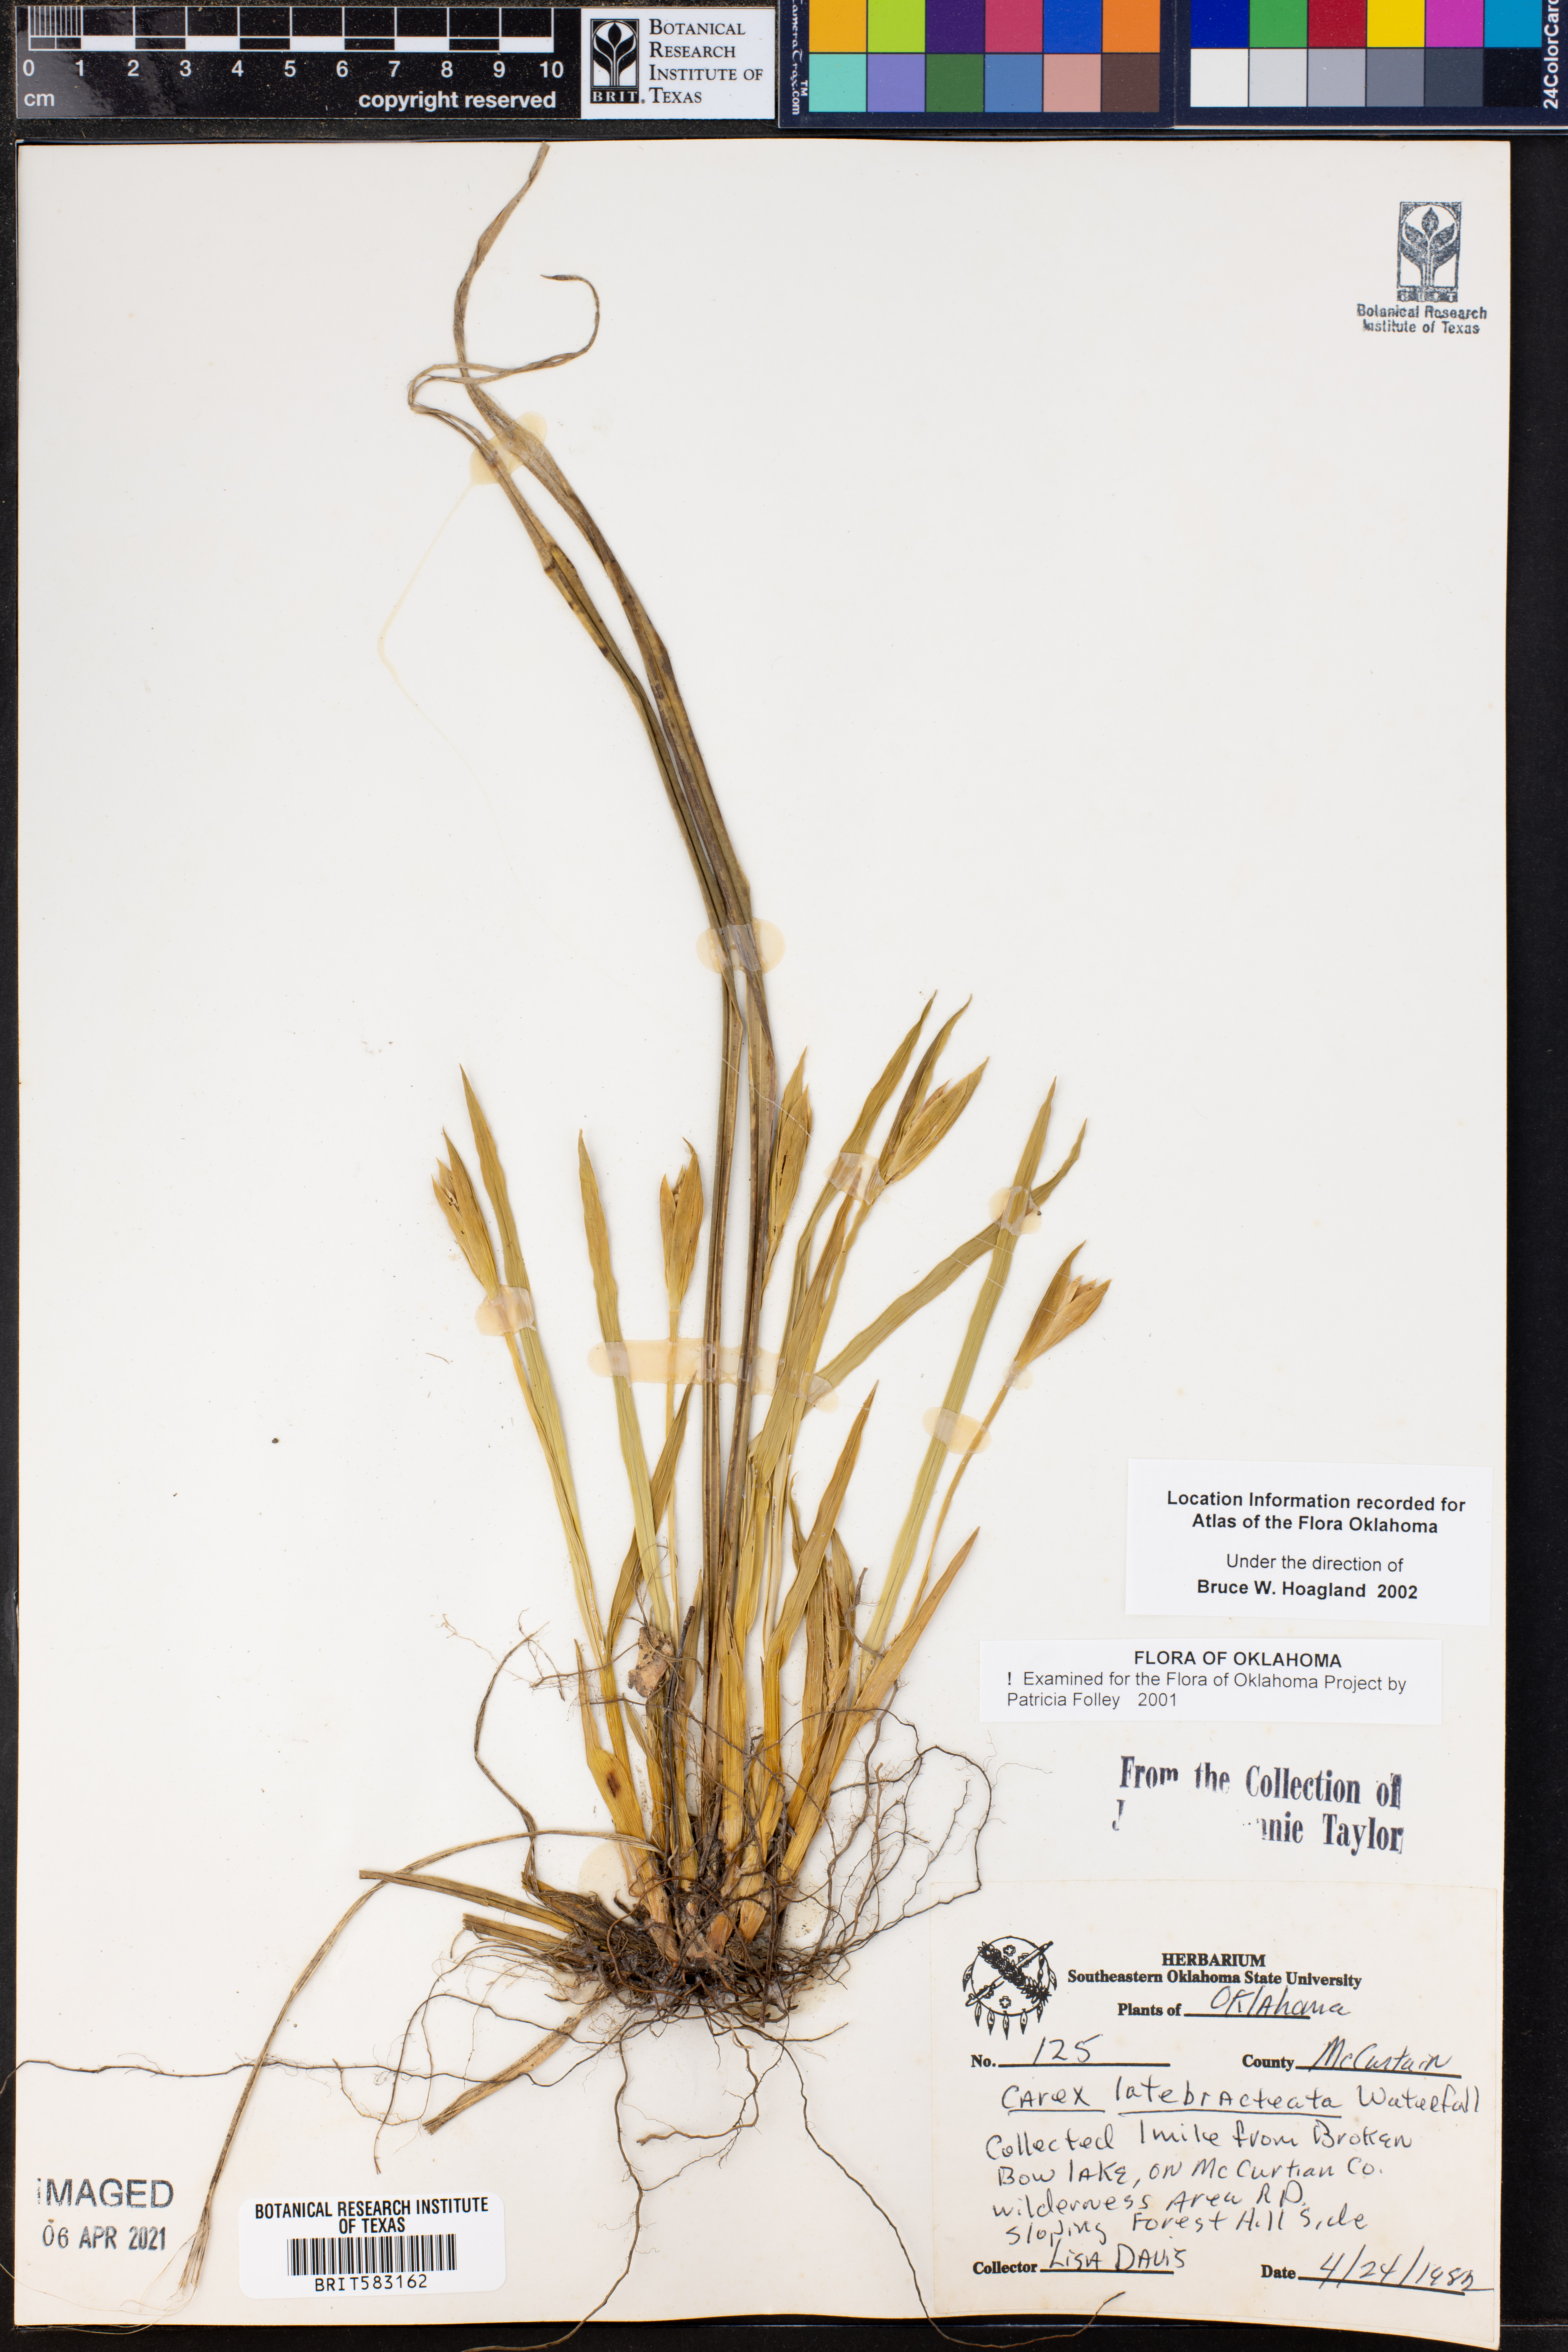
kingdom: Plantae
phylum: Tracheophyta
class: Liliopsida
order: Poales
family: Cyperaceae
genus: Carex
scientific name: Carex latebracteata
